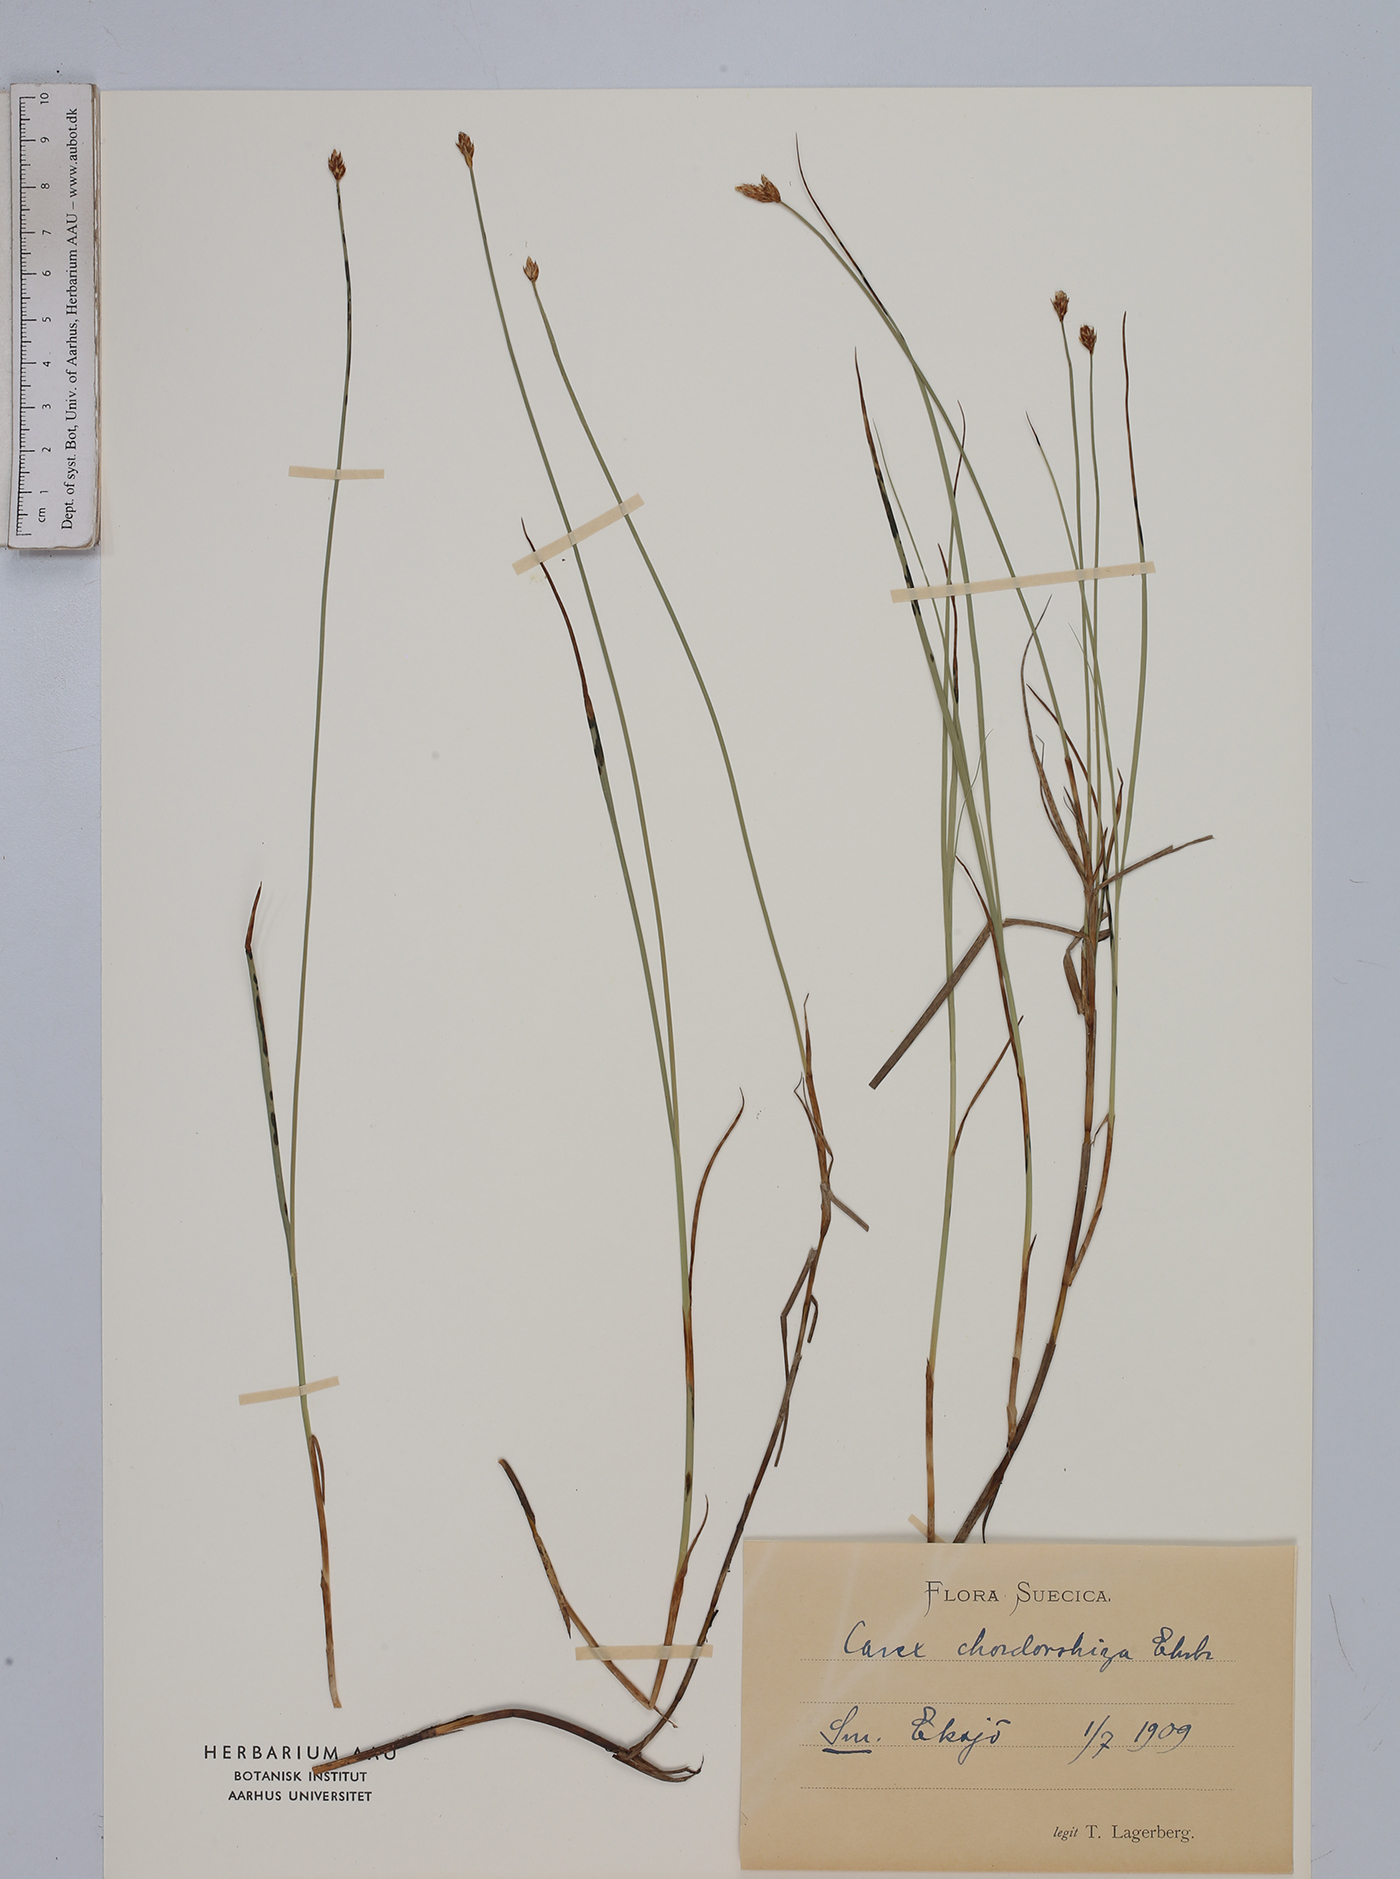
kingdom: Plantae
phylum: Tracheophyta
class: Liliopsida
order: Poales
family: Cyperaceae
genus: Carex
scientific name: Carex chordorrhiza
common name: String sedge
